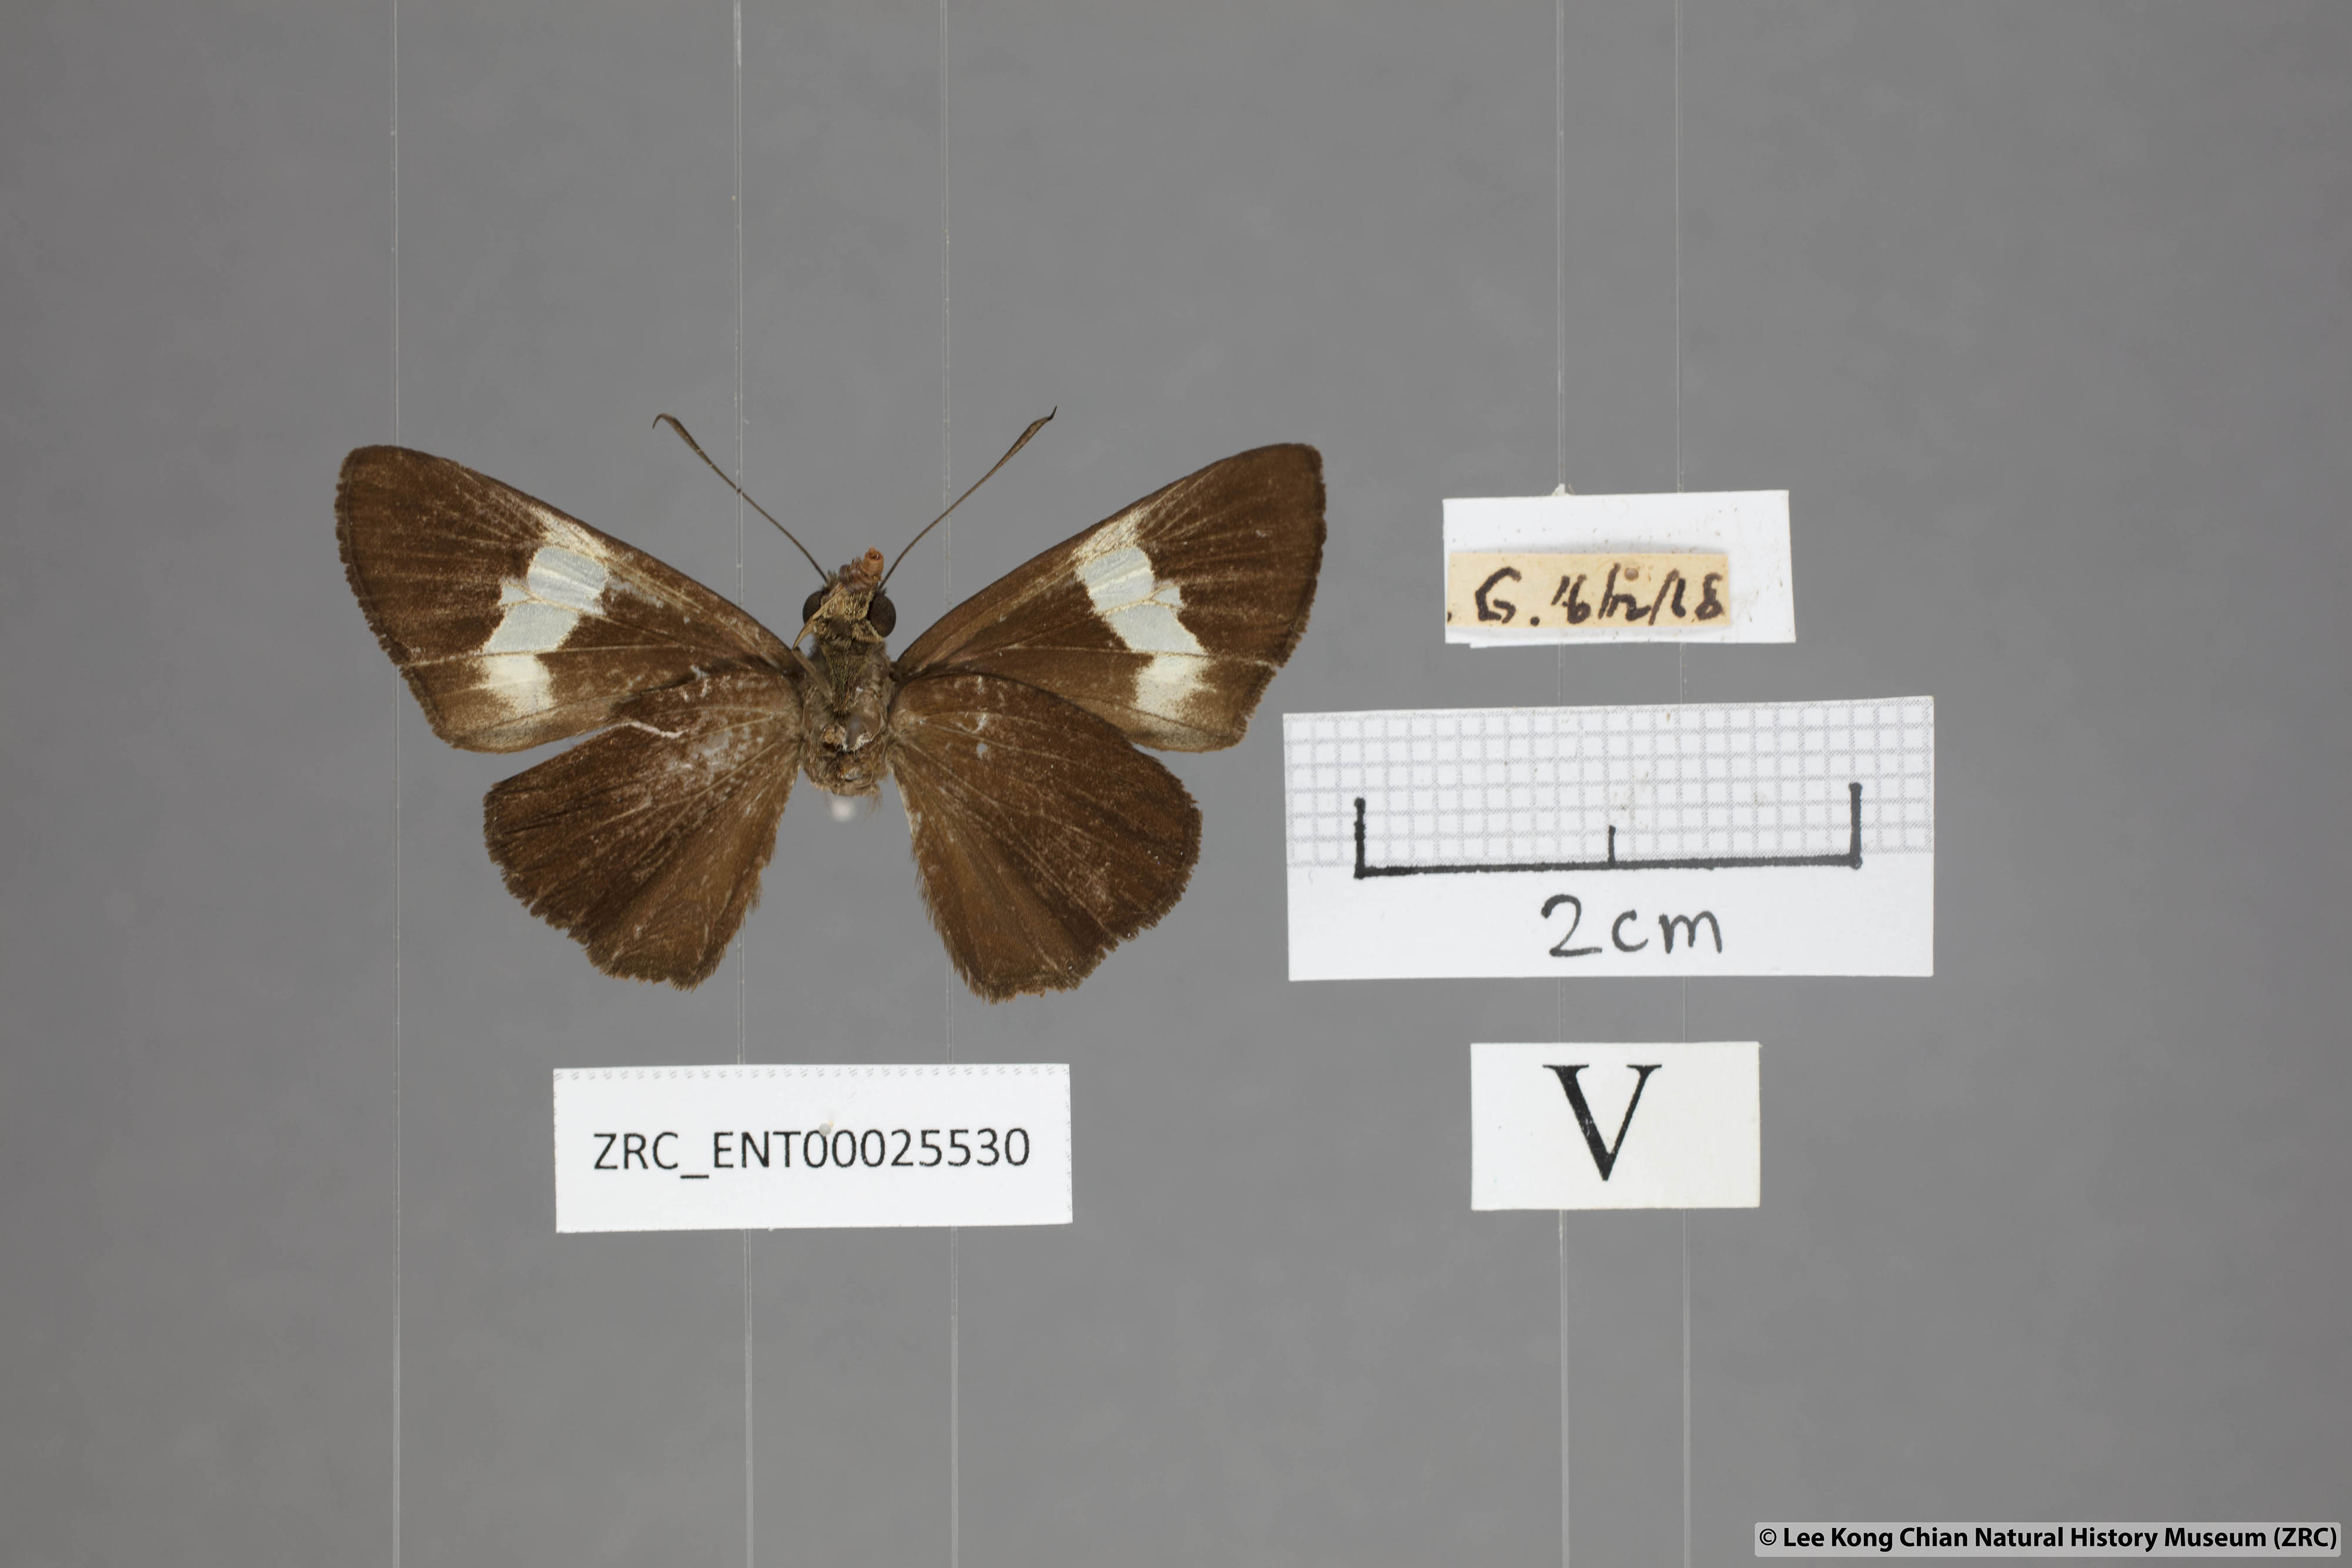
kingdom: Animalia
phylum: Arthropoda
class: Insecta
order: Lepidoptera
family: Hesperiidae
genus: Quedara
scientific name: Quedara monteithi
